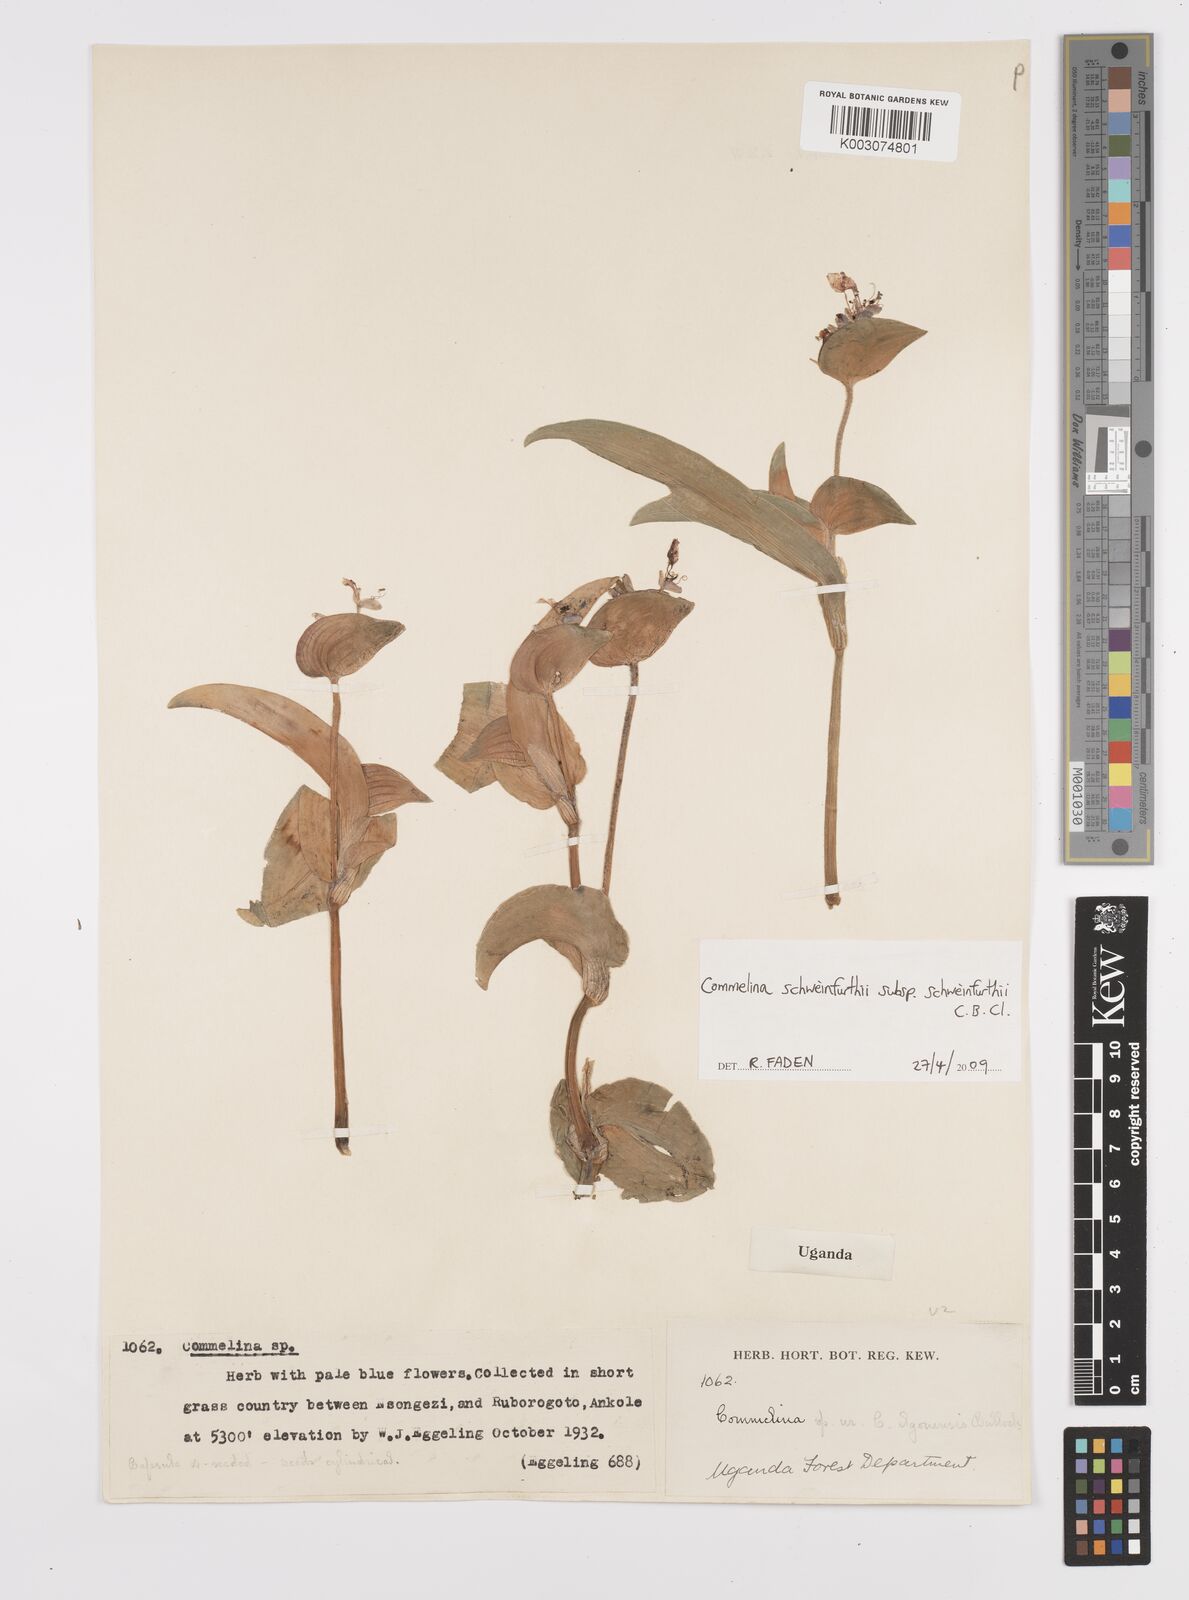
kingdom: Plantae
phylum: Tracheophyta
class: Liliopsida
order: Commelinales
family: Commelinaceae
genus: Commelina
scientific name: Commelina schweinfurthii
